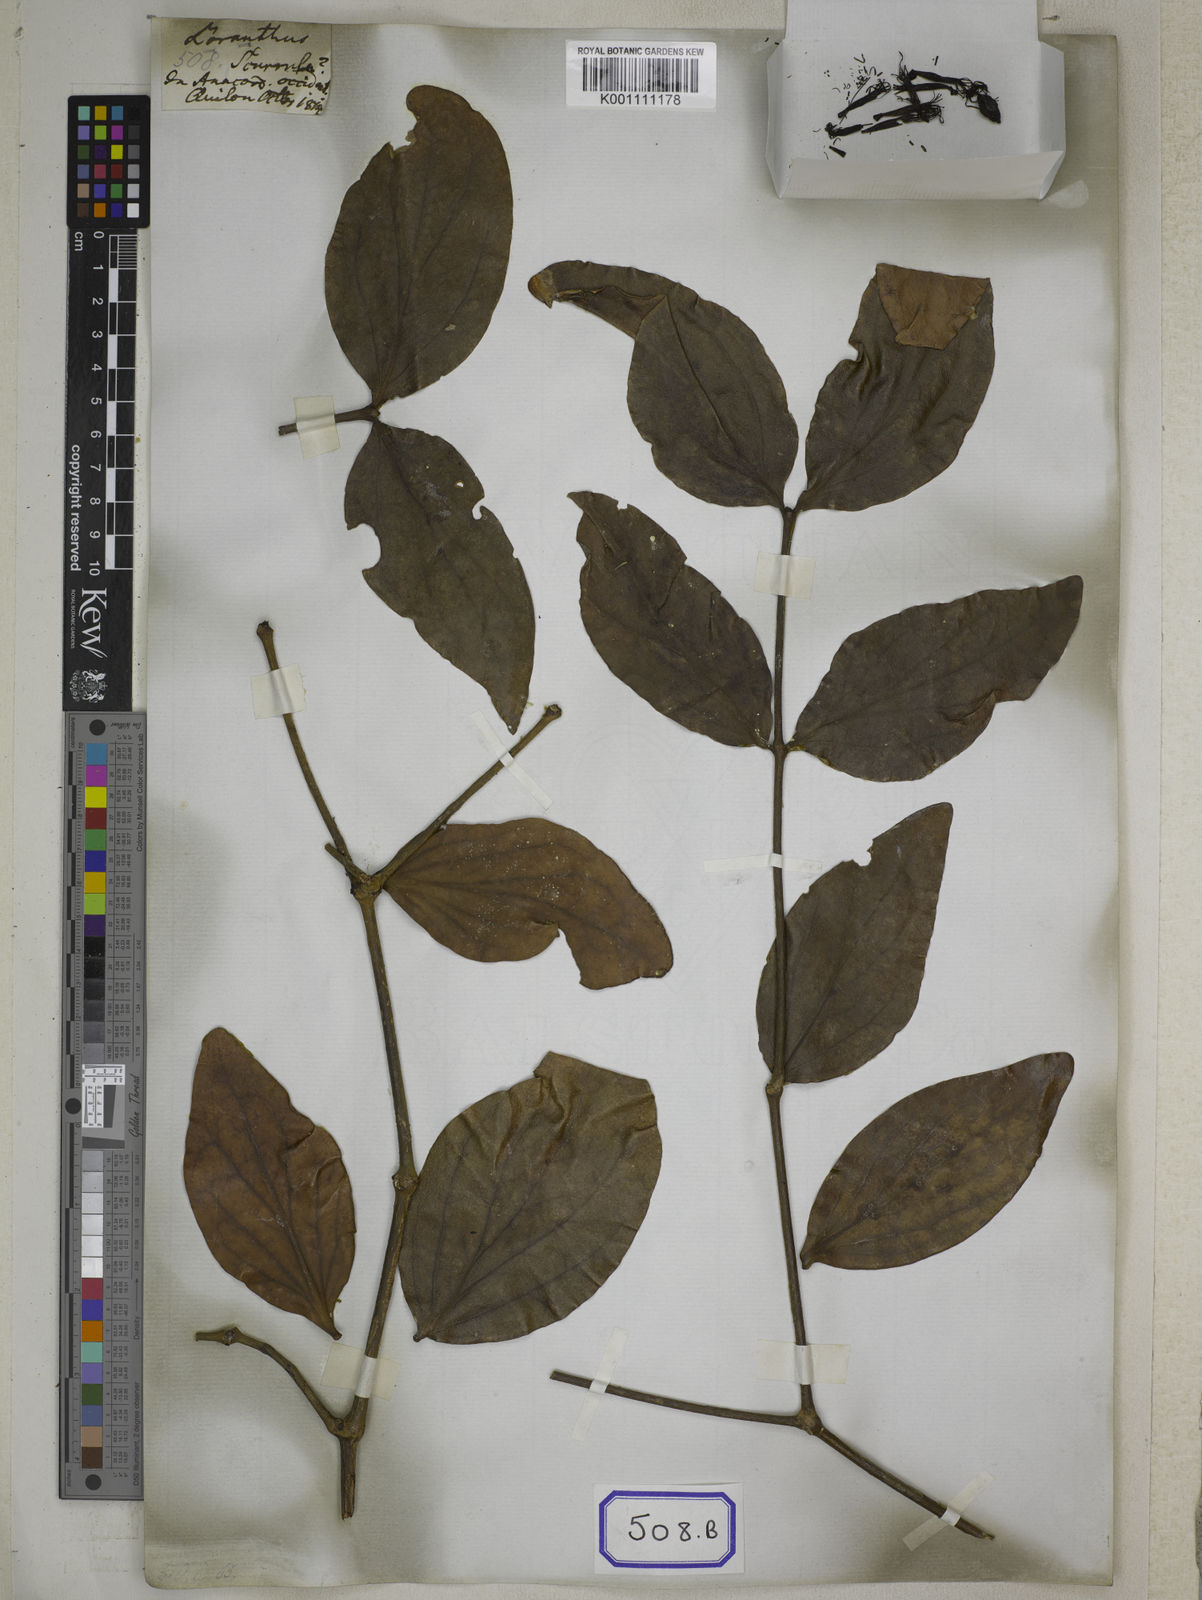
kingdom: Plantae
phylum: Tracheophyta
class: Magnoliopsida
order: Santalales
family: Loranthaceae
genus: Loranthus
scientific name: Loranthus
